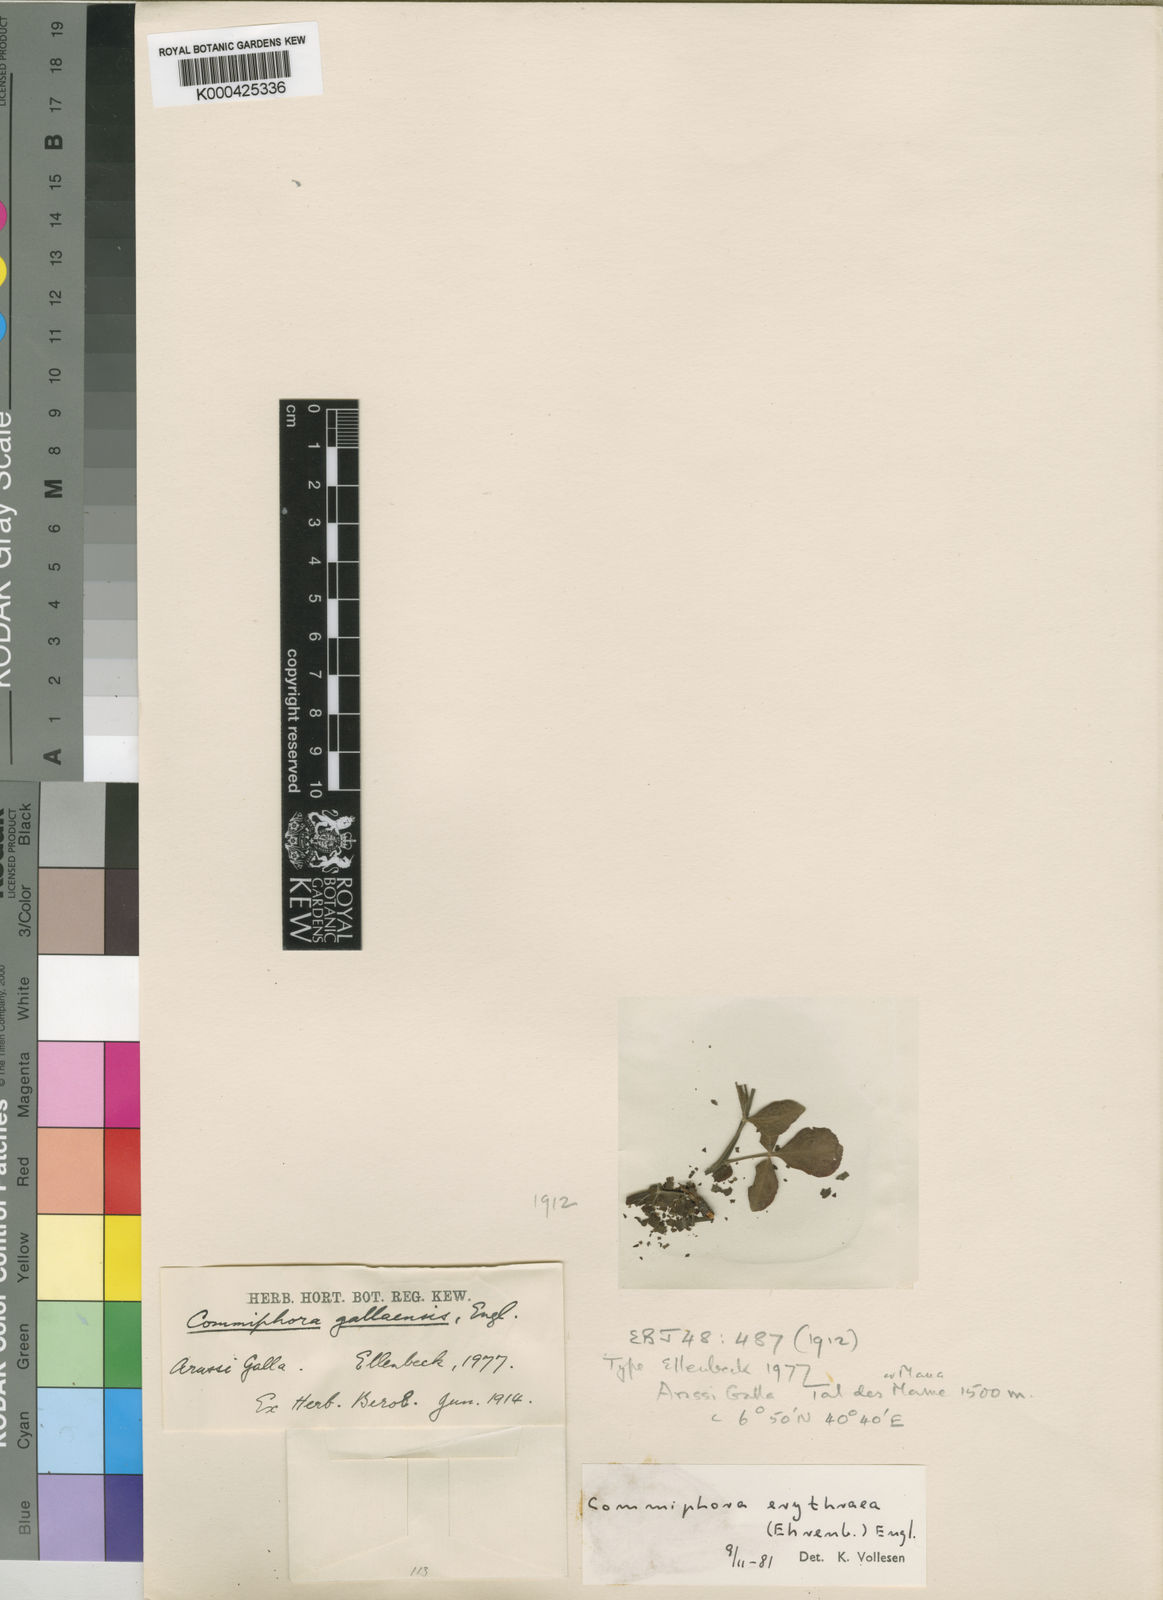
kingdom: Plantae
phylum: Tracheophyta
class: Magnoliopsida
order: Sapindales
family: Burseraceae
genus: Commiphora
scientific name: Commiphora kataf
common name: Bisabol myrrh
